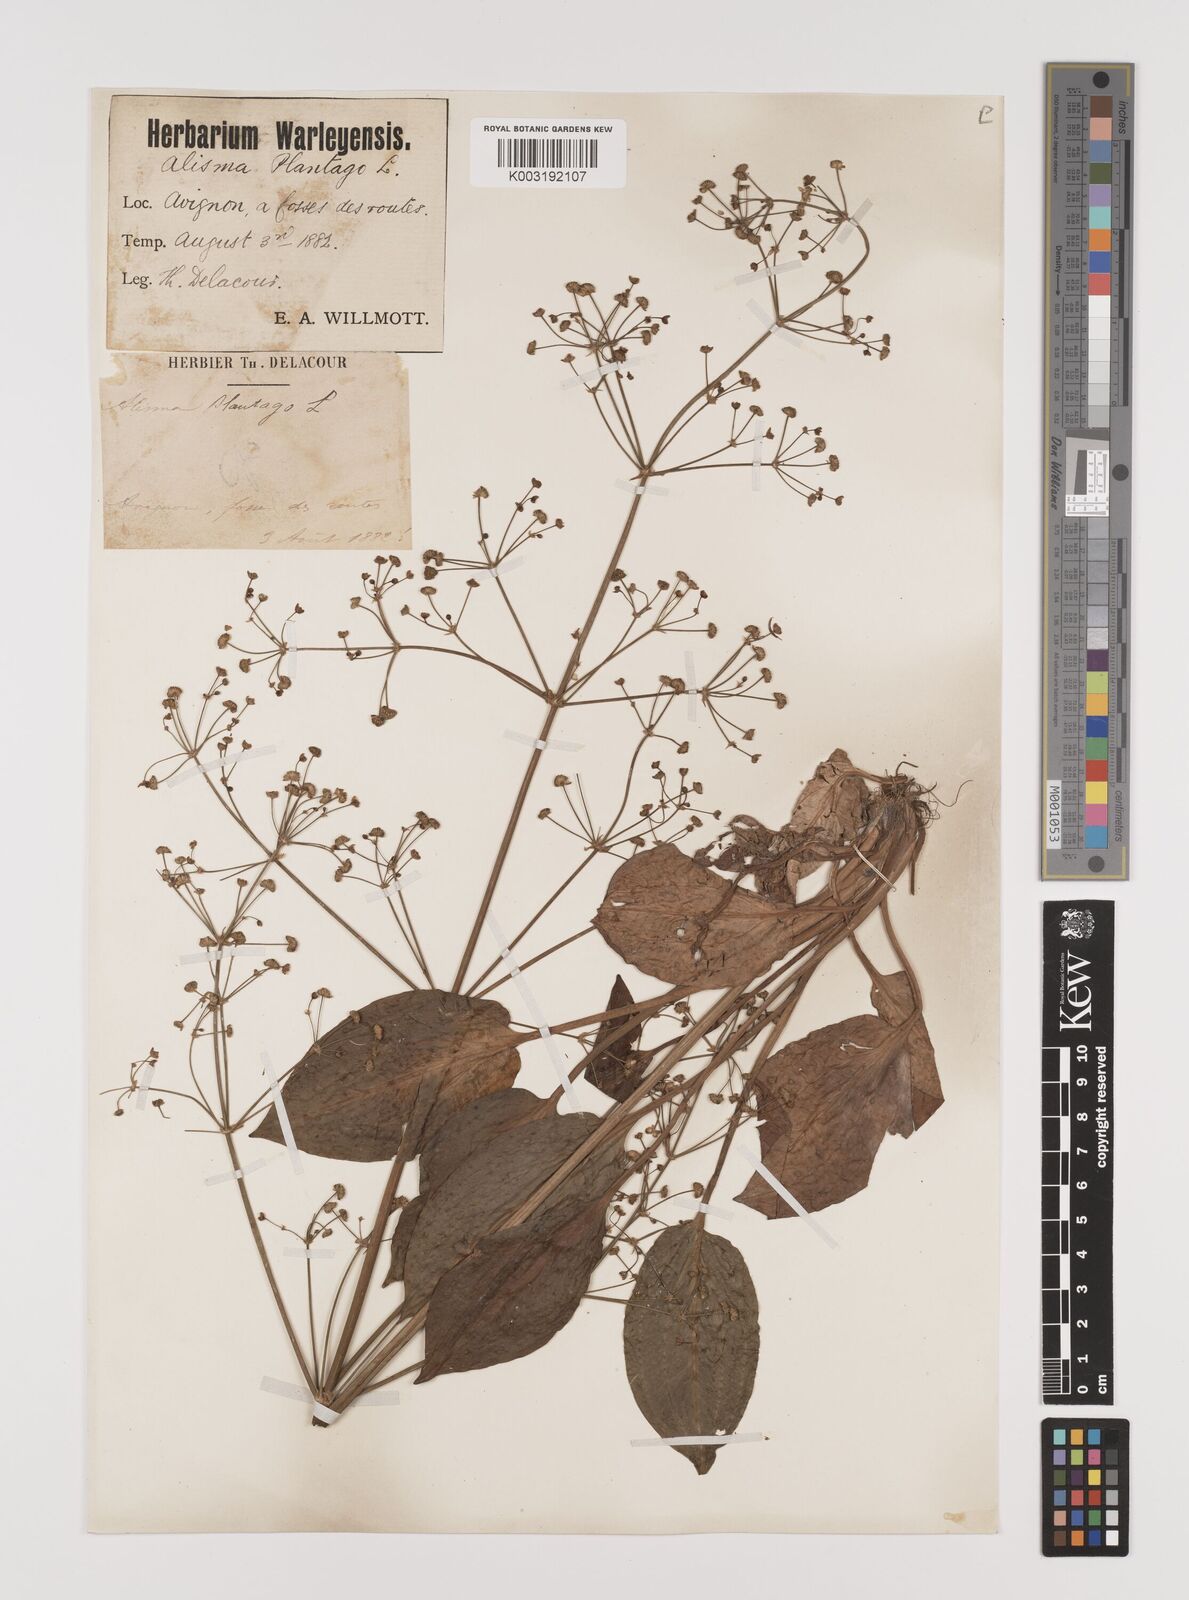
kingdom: Plantae
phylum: Tracheophyta
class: Liliopsida
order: Alismatales
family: Alismataceae
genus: Alisma
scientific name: Alisma plantago-aquatica
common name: Water-plantain
